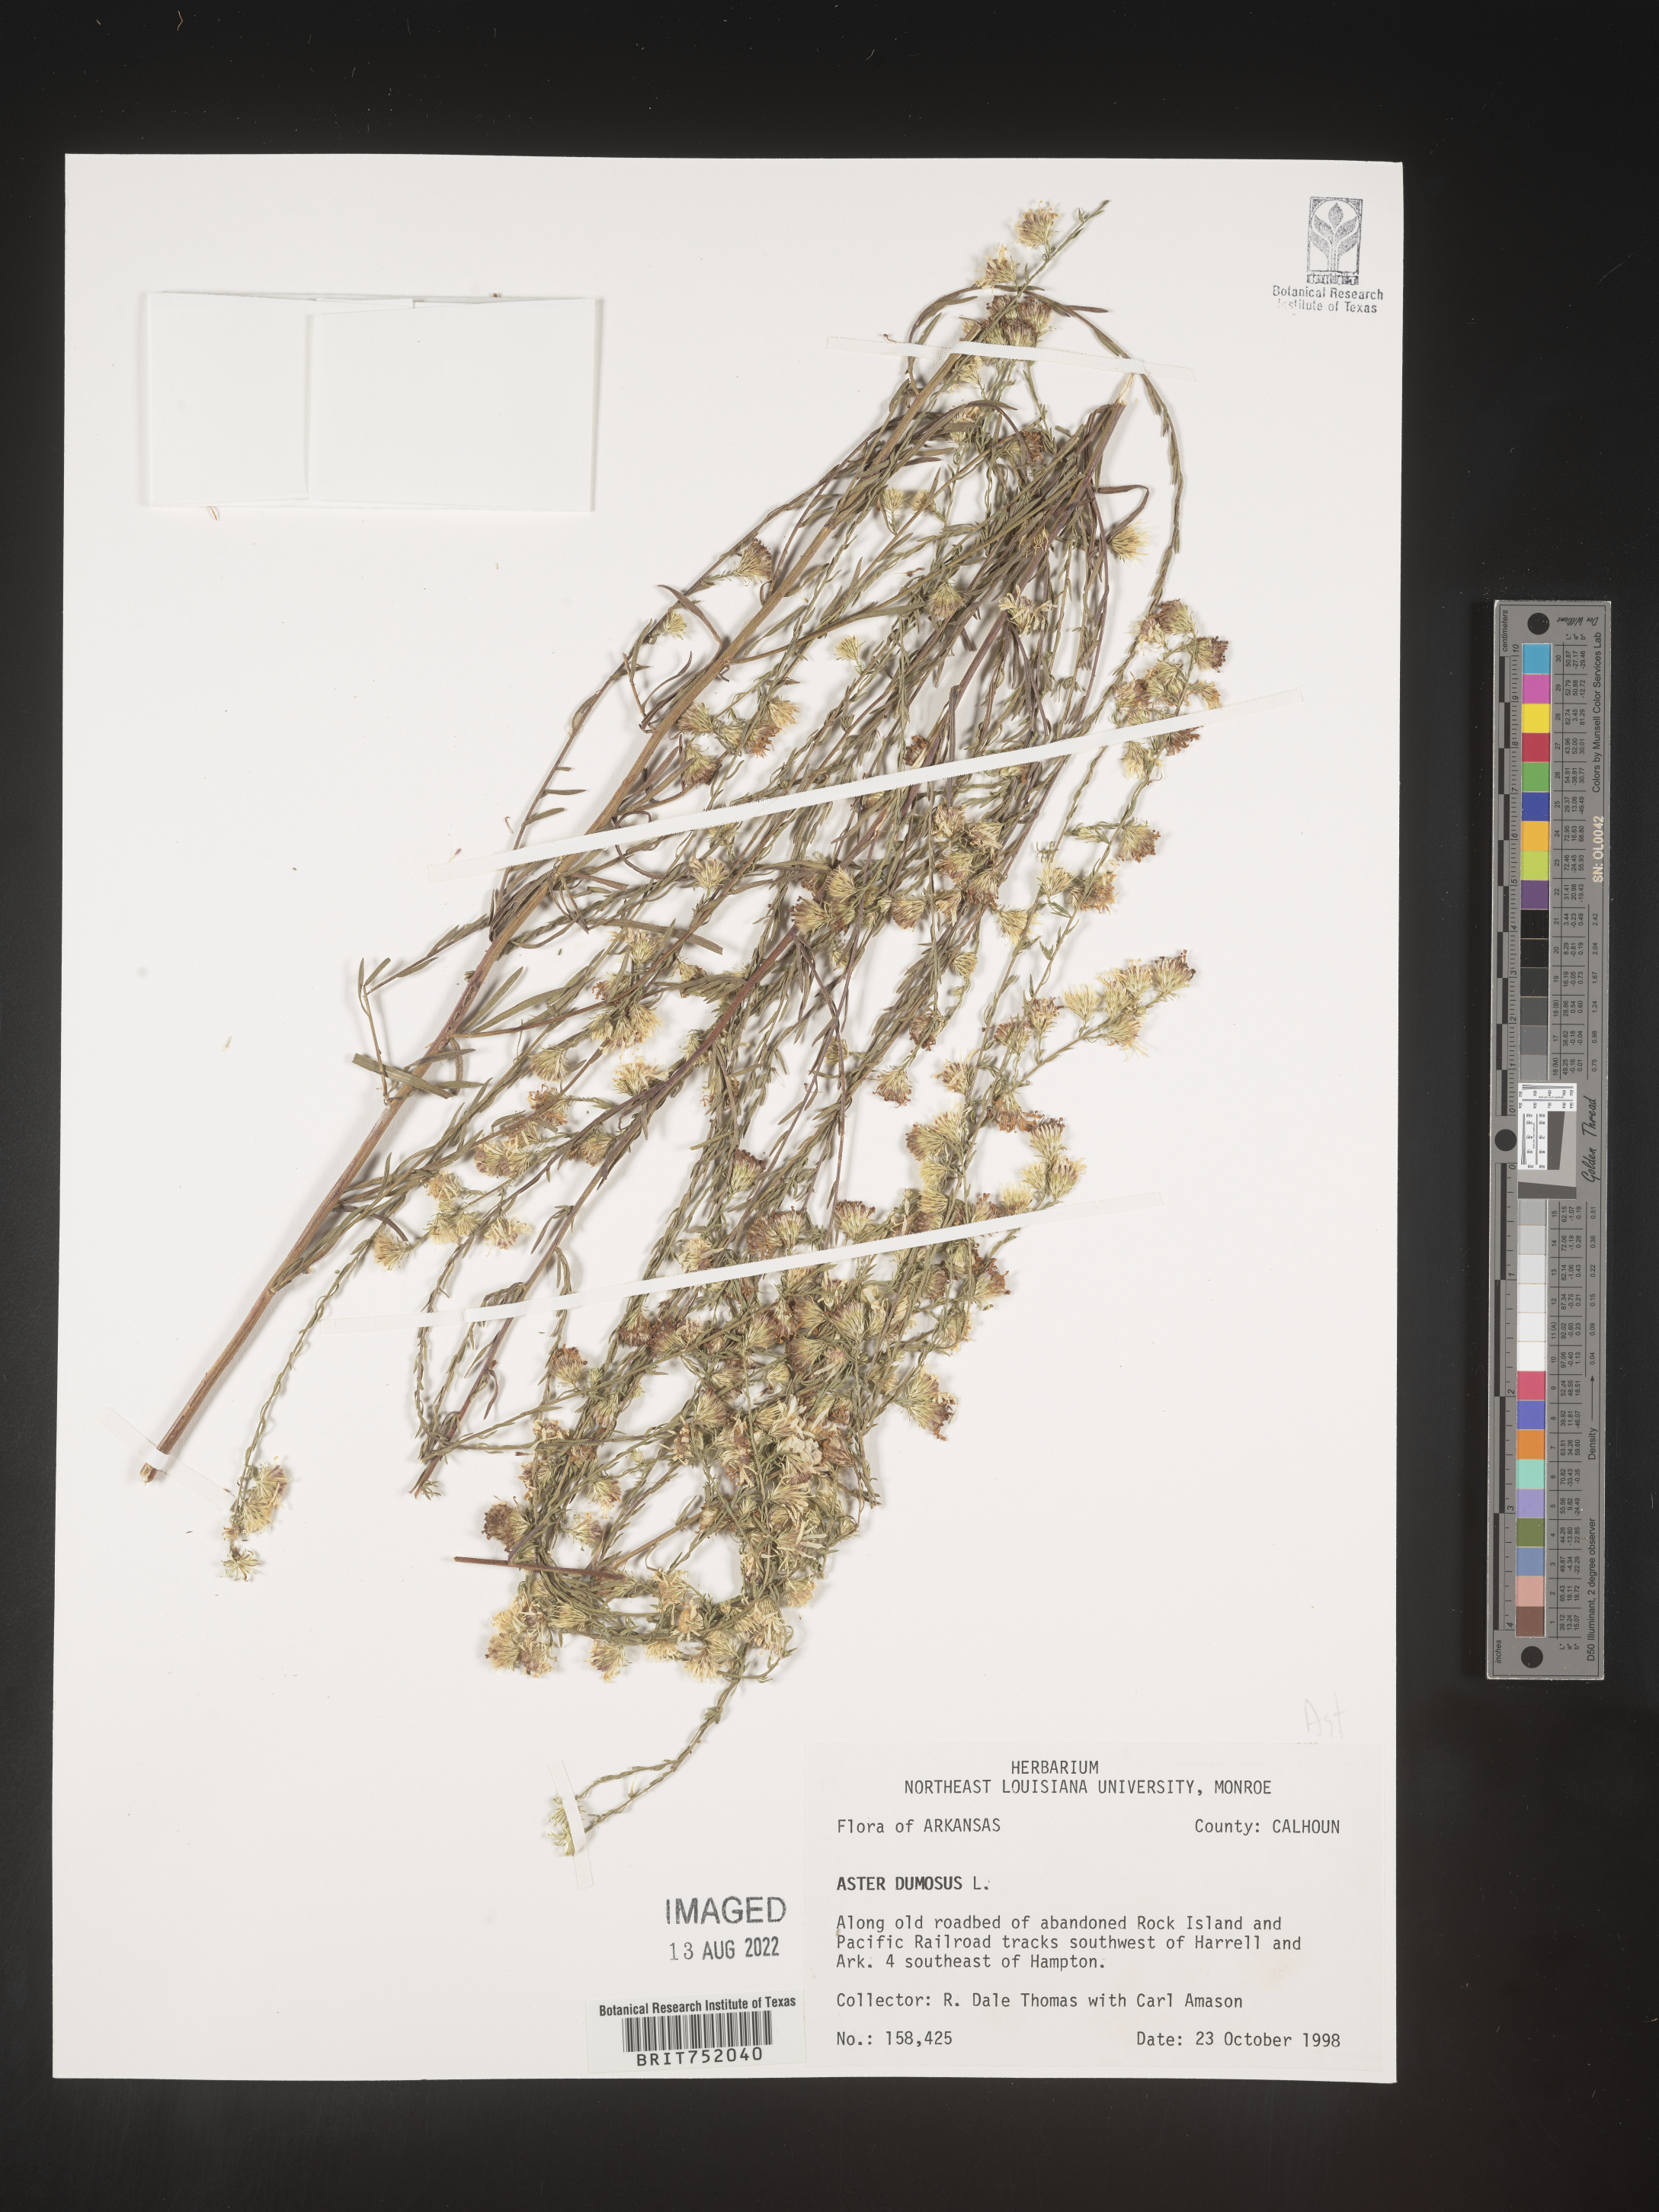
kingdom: Plantae
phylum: Tracheophyta
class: Magnoliopsida
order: Asterales
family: Asteraceae
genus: Symphyotrichum
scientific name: Symphyotrichum dumosum
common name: Bushy aster
